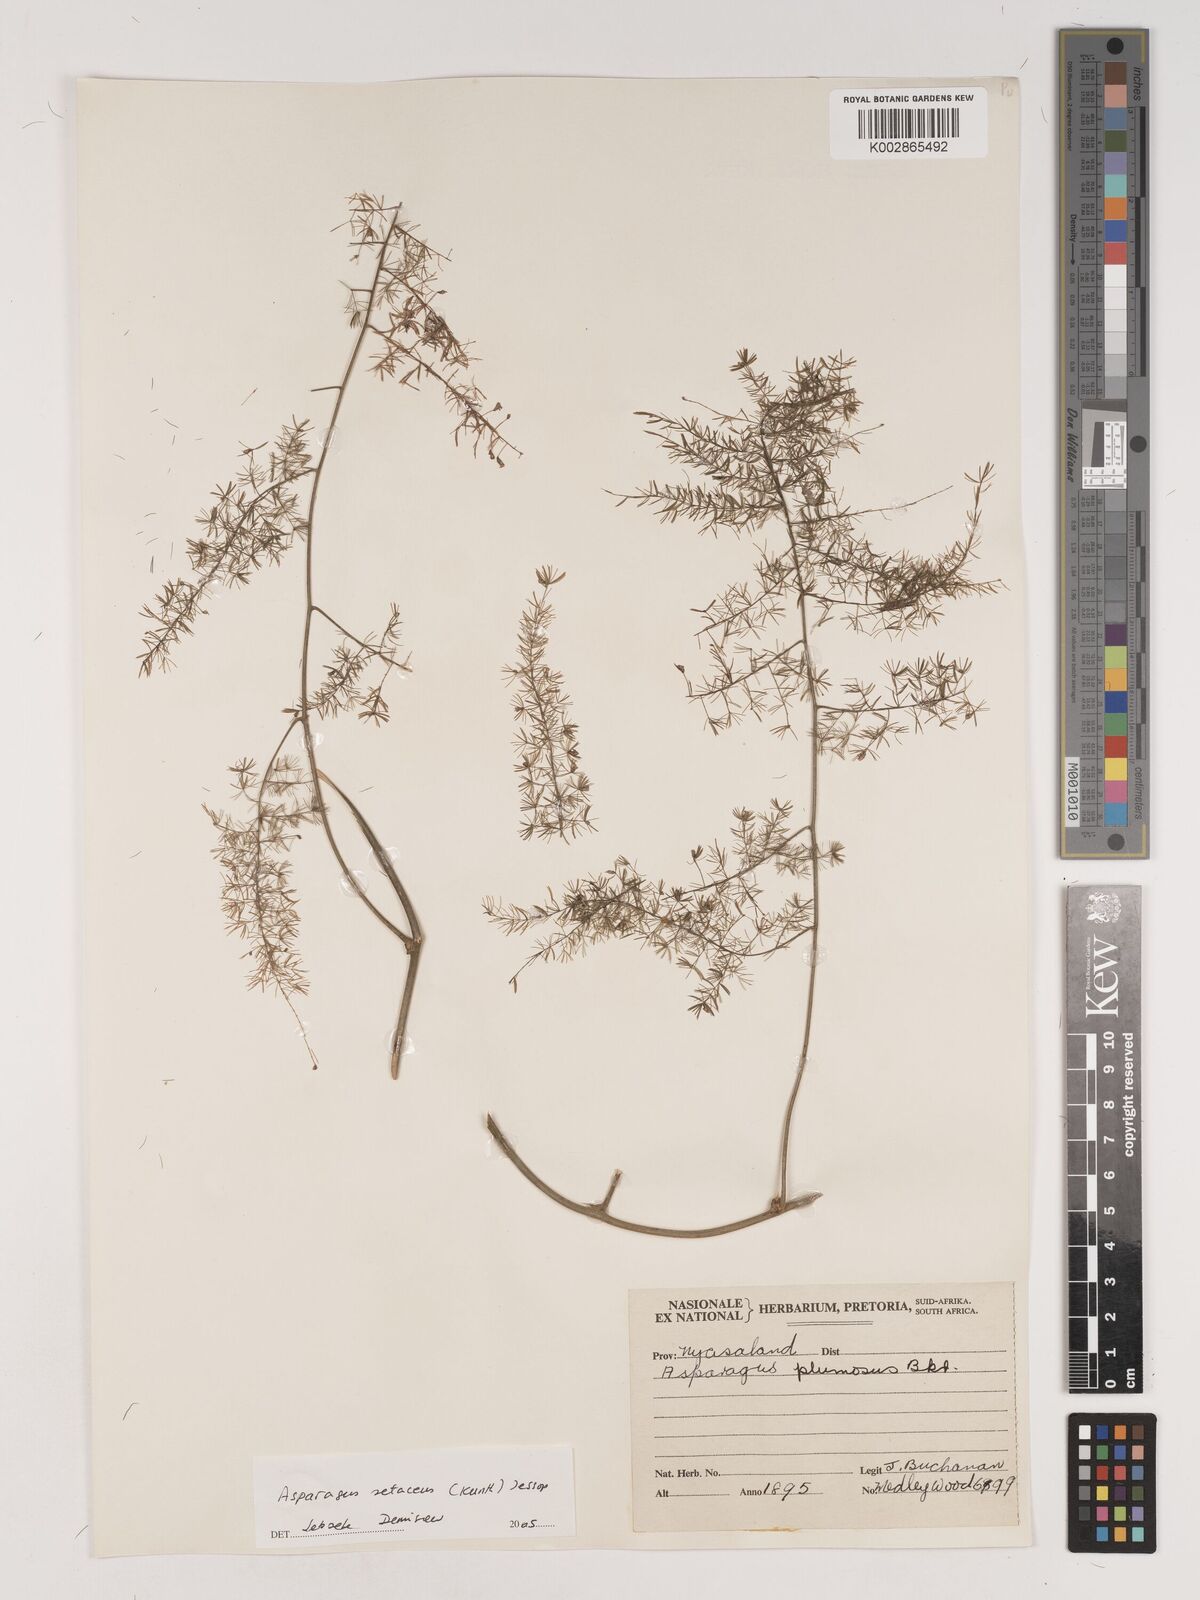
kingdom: Plantae
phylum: Tracheophyta
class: Liliopsida
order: Asparagales
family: Asparagaceae
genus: Asparagus
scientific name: Asparagus setaceus
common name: Common asparagus fern
